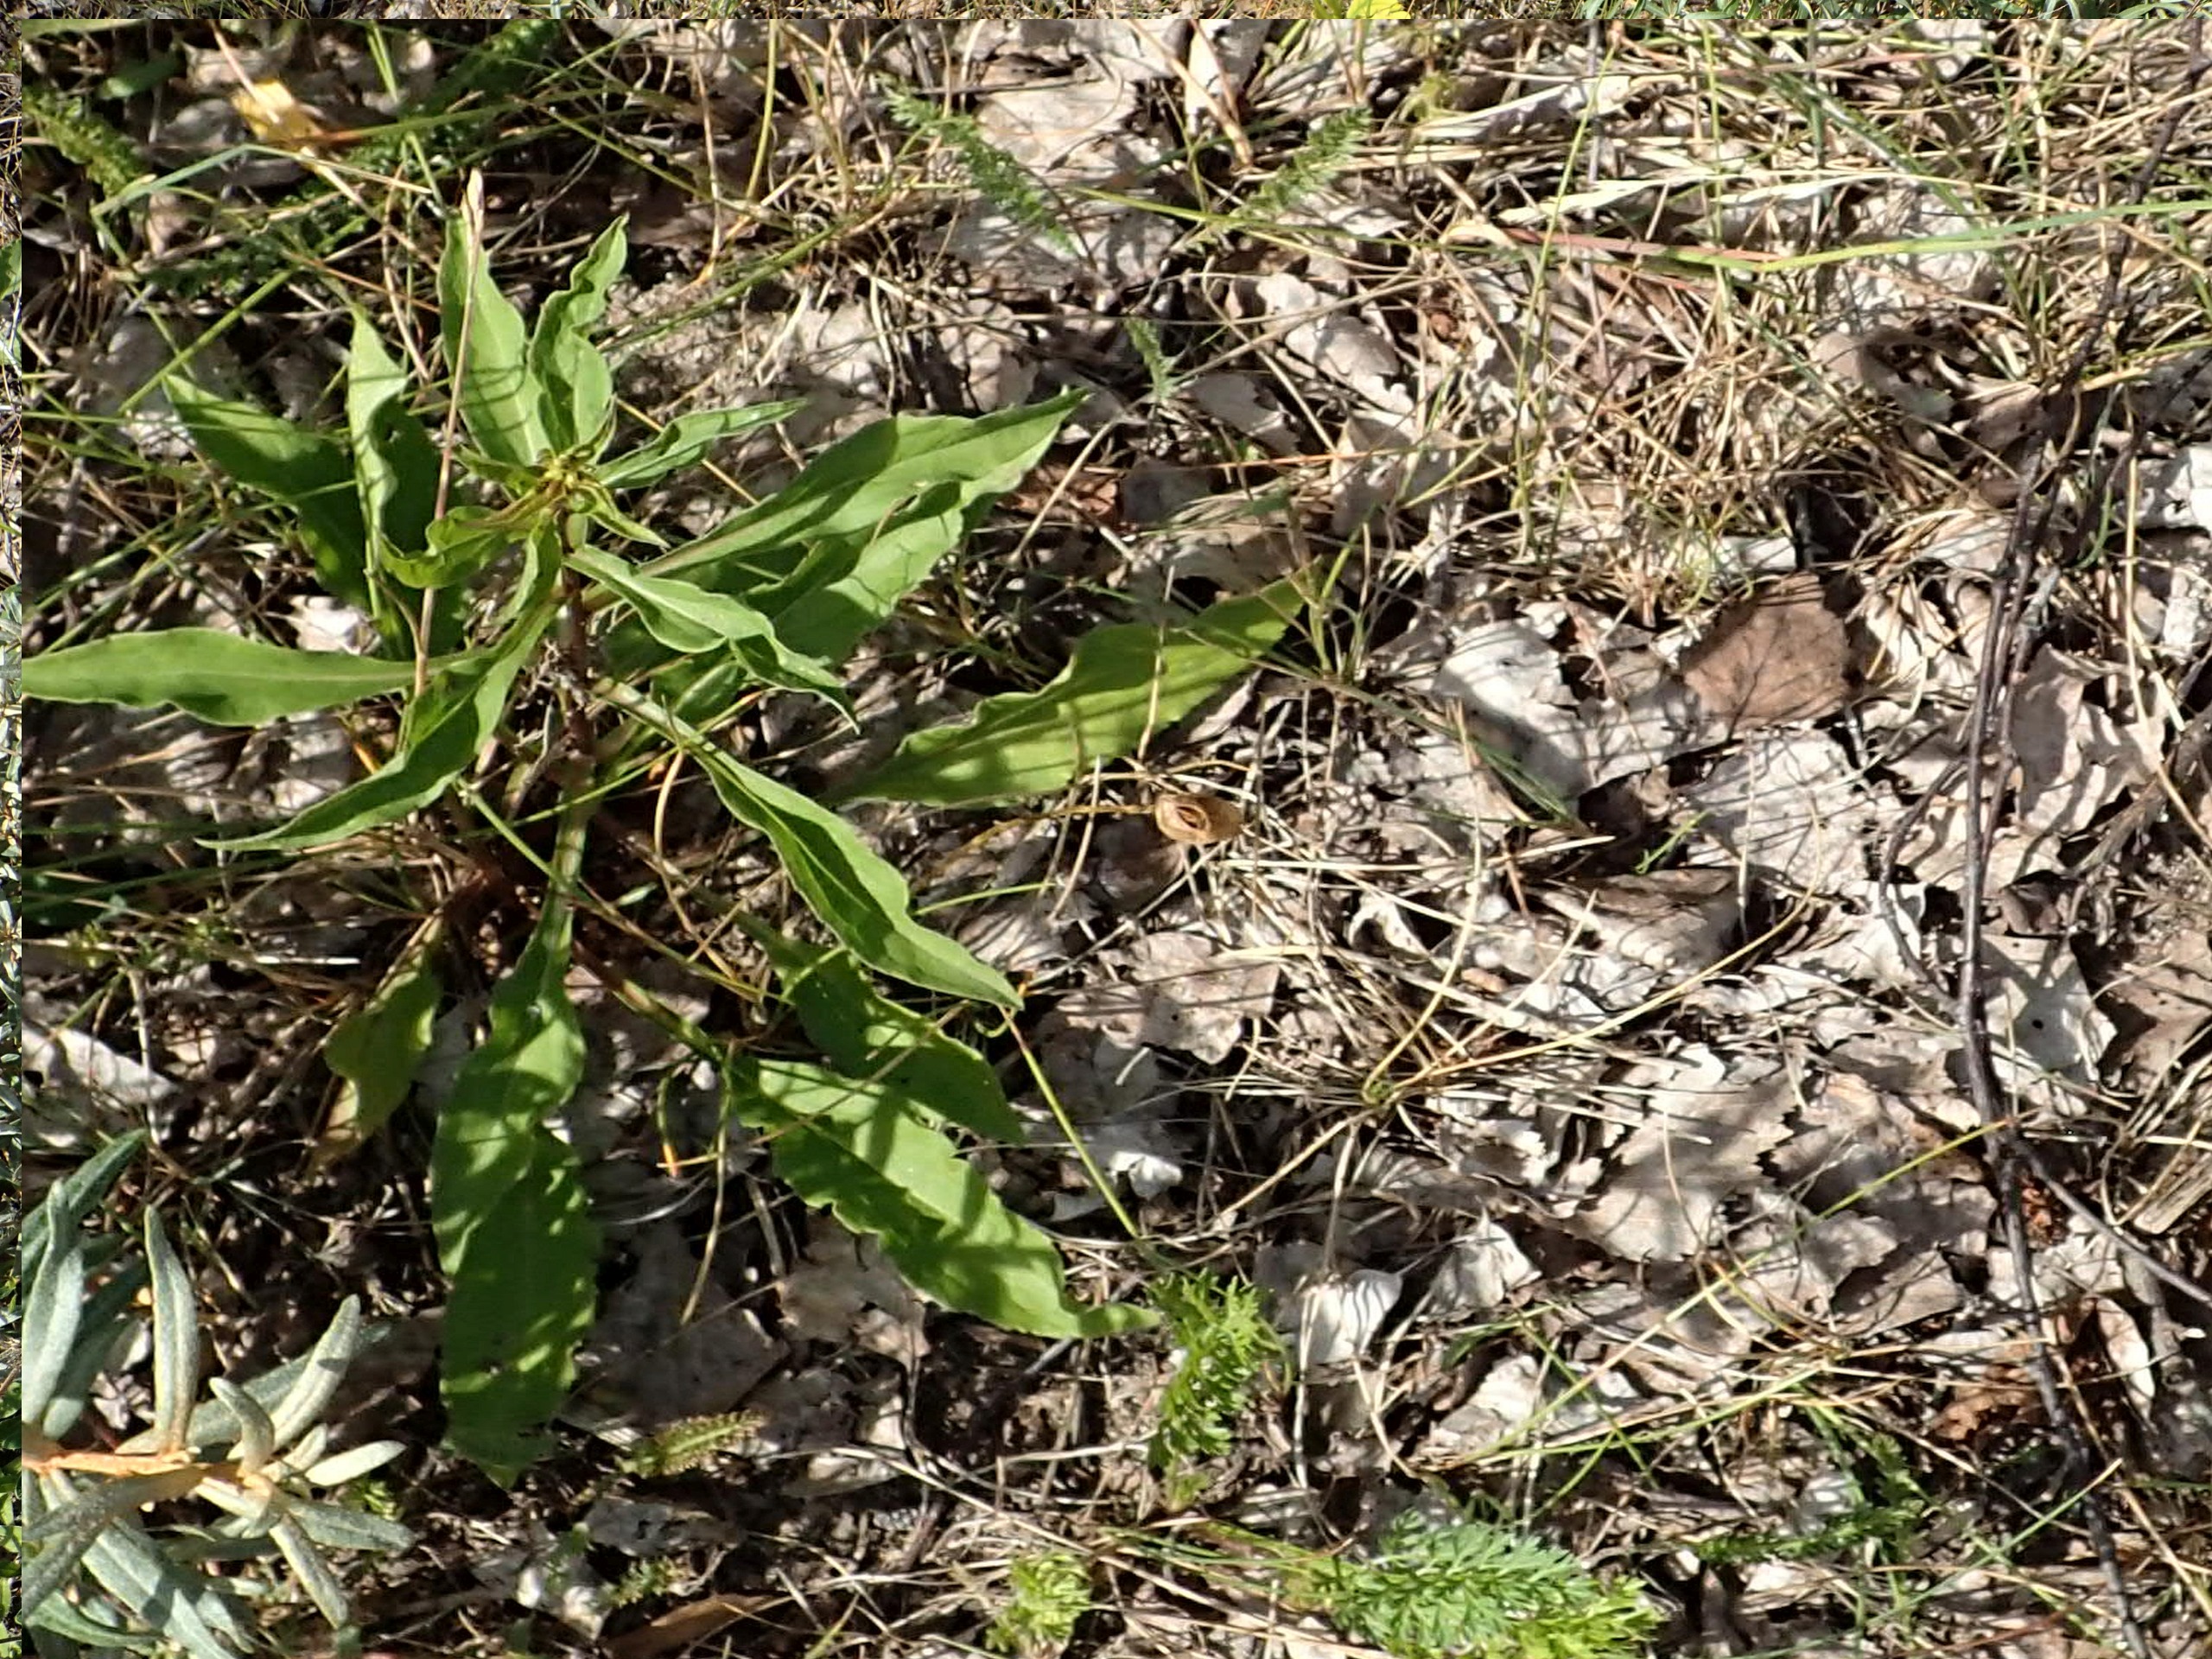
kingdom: Plantae
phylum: Tracheophyta
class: Magnoliopsida
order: Asterales
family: Asteraceae
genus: Solidago
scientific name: Solidago virgaurea
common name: Almindelig gyldenris
